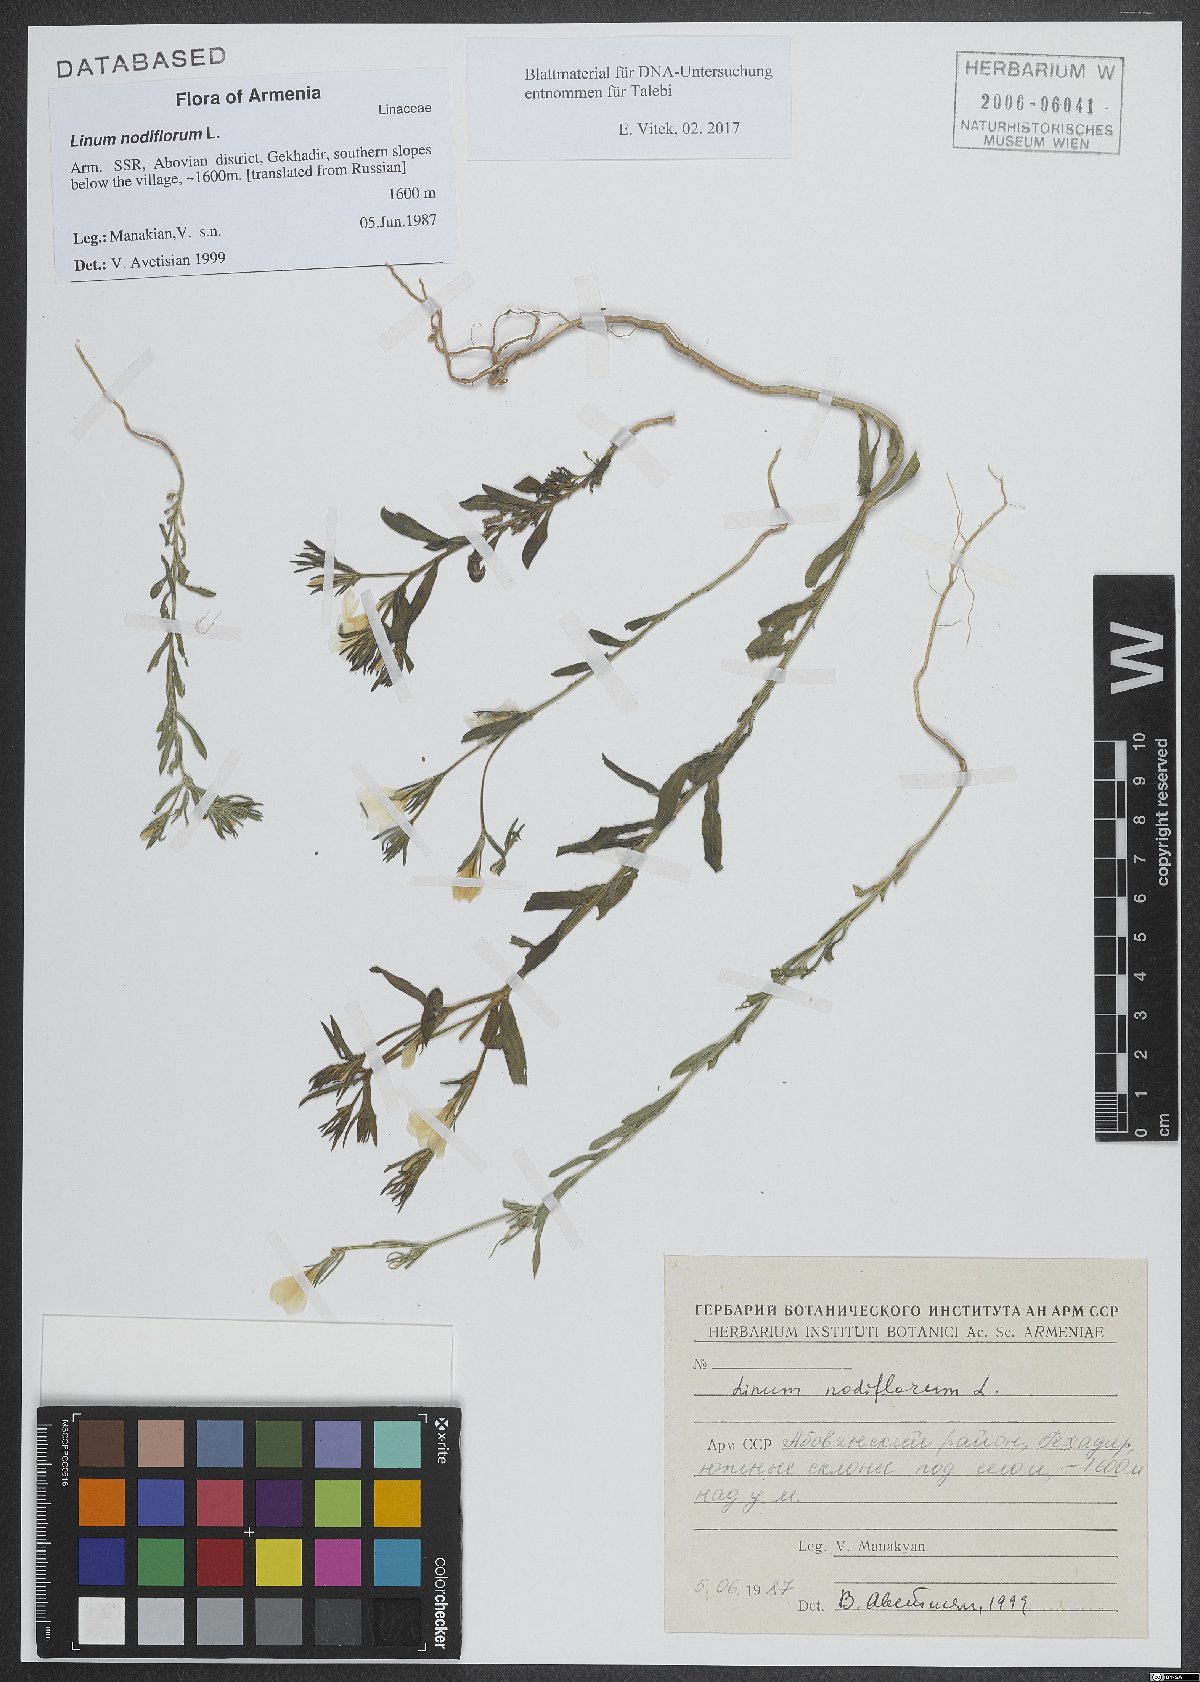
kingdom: Plantae
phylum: Tracheophyta
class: Magnoliopsida
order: Malpighiales
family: Linaceae
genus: Linum
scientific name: Linum nodiflorum
